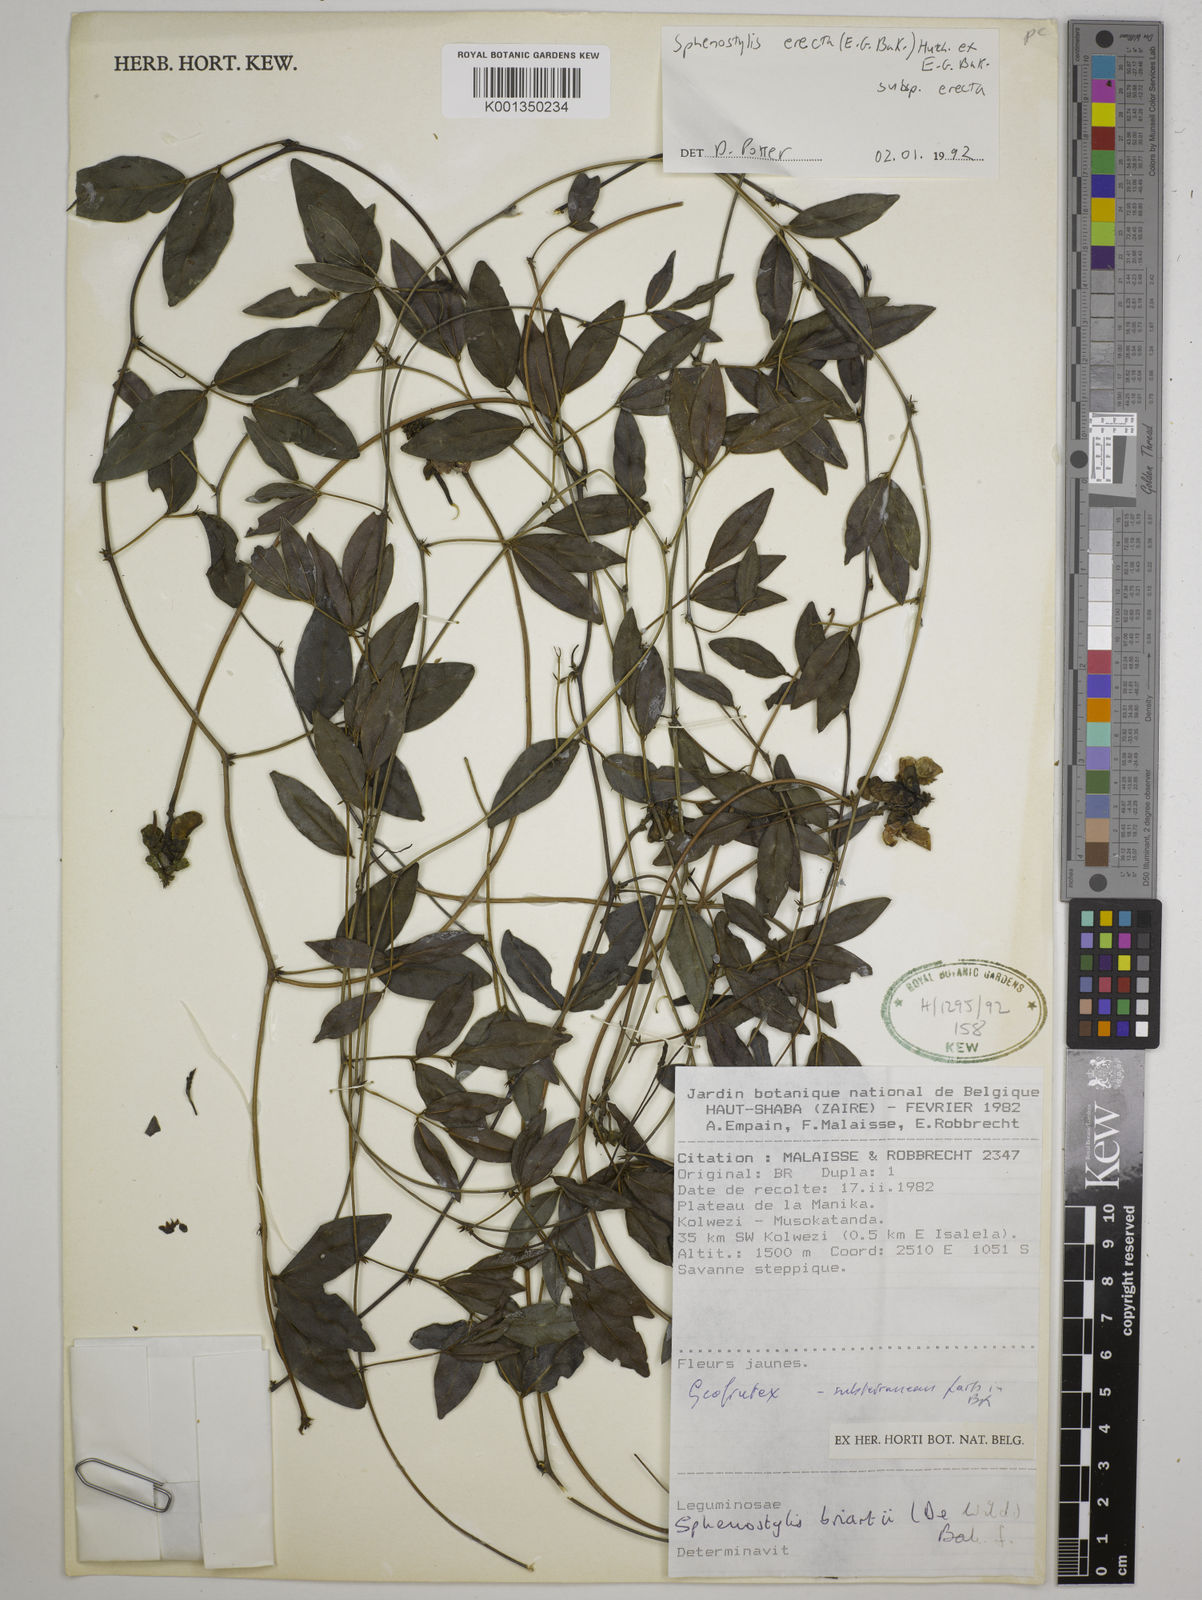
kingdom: Plantae
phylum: Tracheophyta
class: Magnoliopsida
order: Fabales
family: Fabaceae
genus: Sphenostylis
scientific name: Sphenostylis briartii
